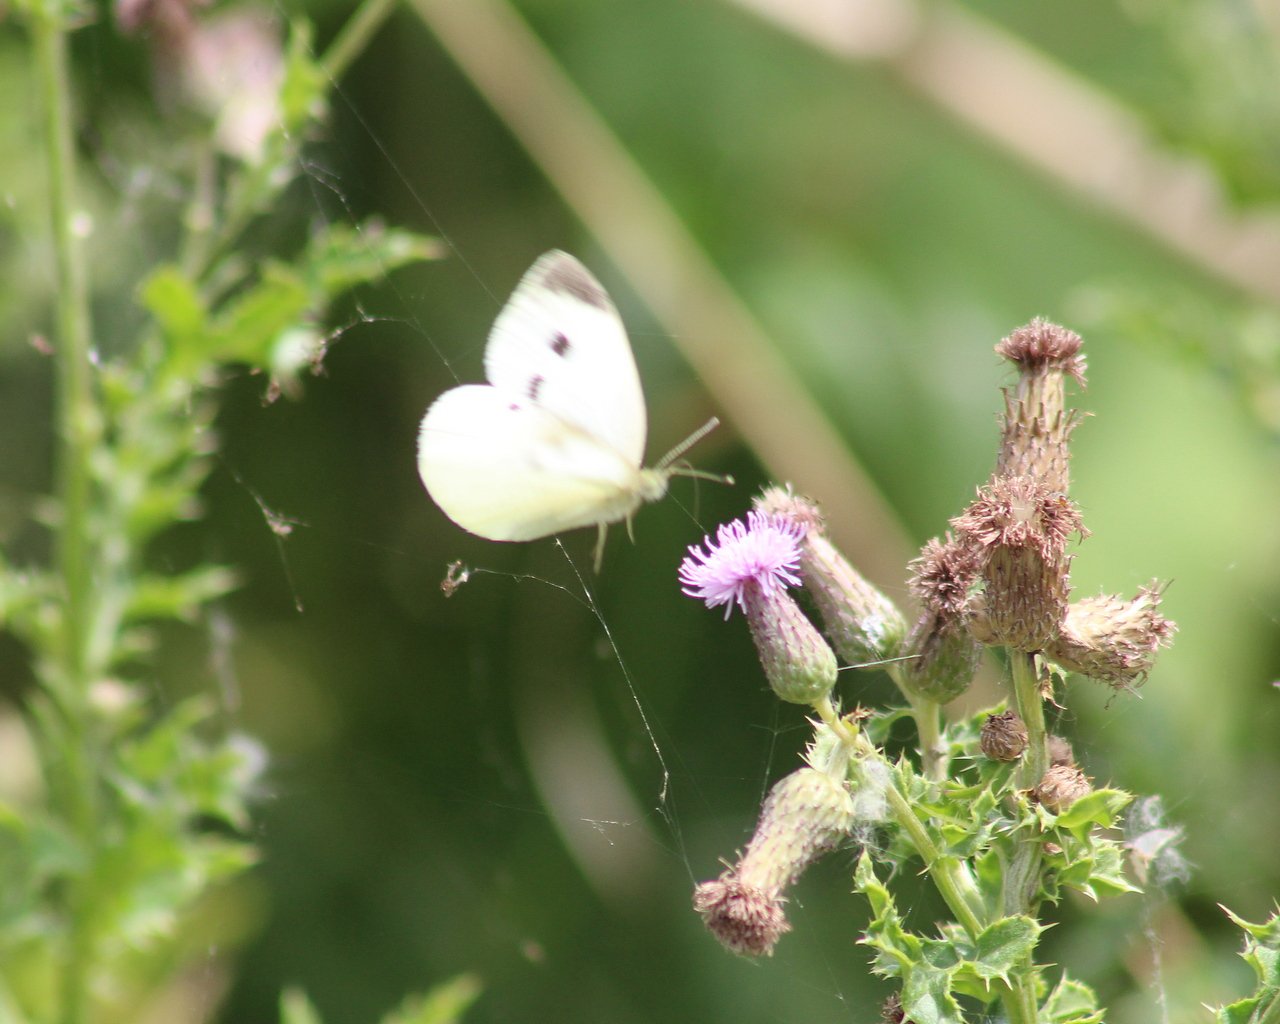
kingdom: Animalia
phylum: Arthropoda
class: Insecta
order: Lepidoptera
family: Pieridae
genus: Pieris
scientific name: Pieris rapae
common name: Cabbage White
